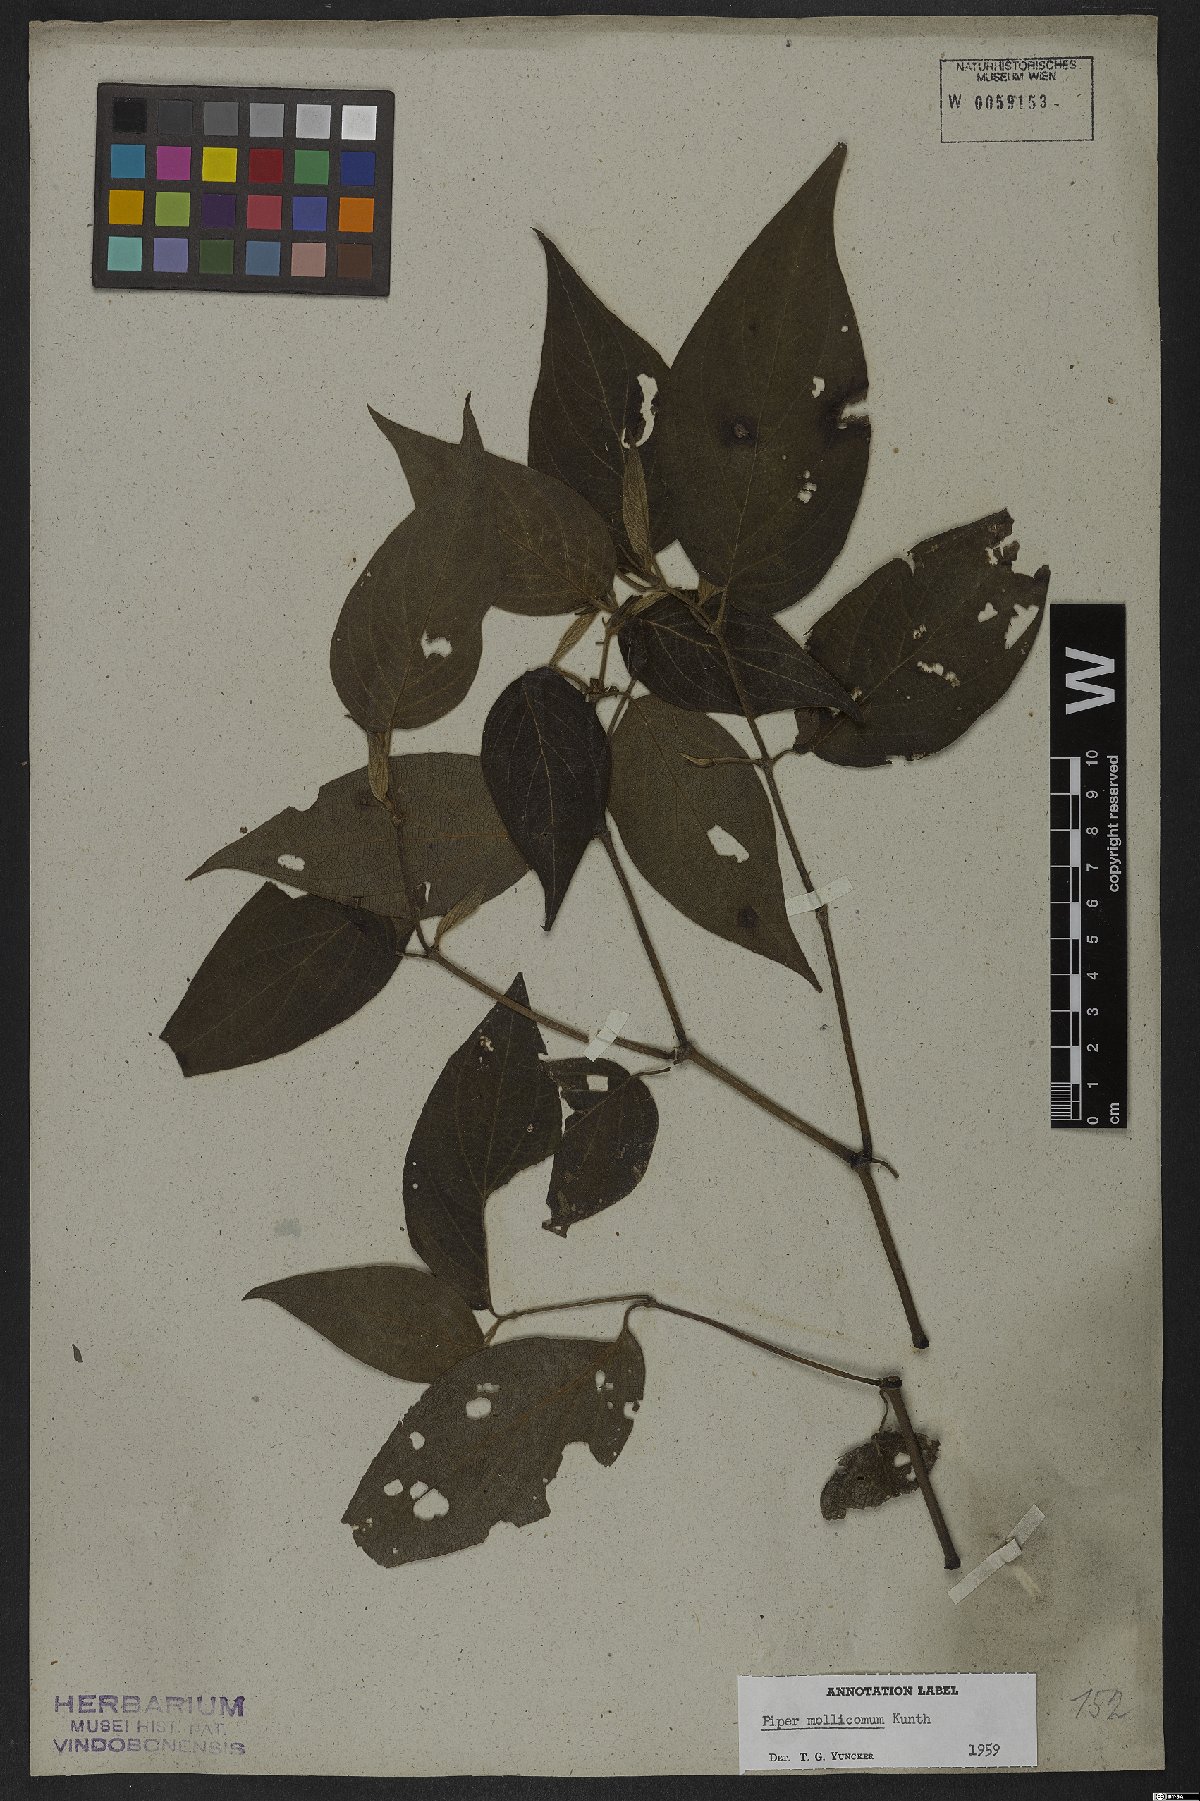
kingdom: Plantae
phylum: Tracheophyta
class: Magnoliopsida
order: Piperales
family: Piperaceae
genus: Piper
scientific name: Piper mollicomum
